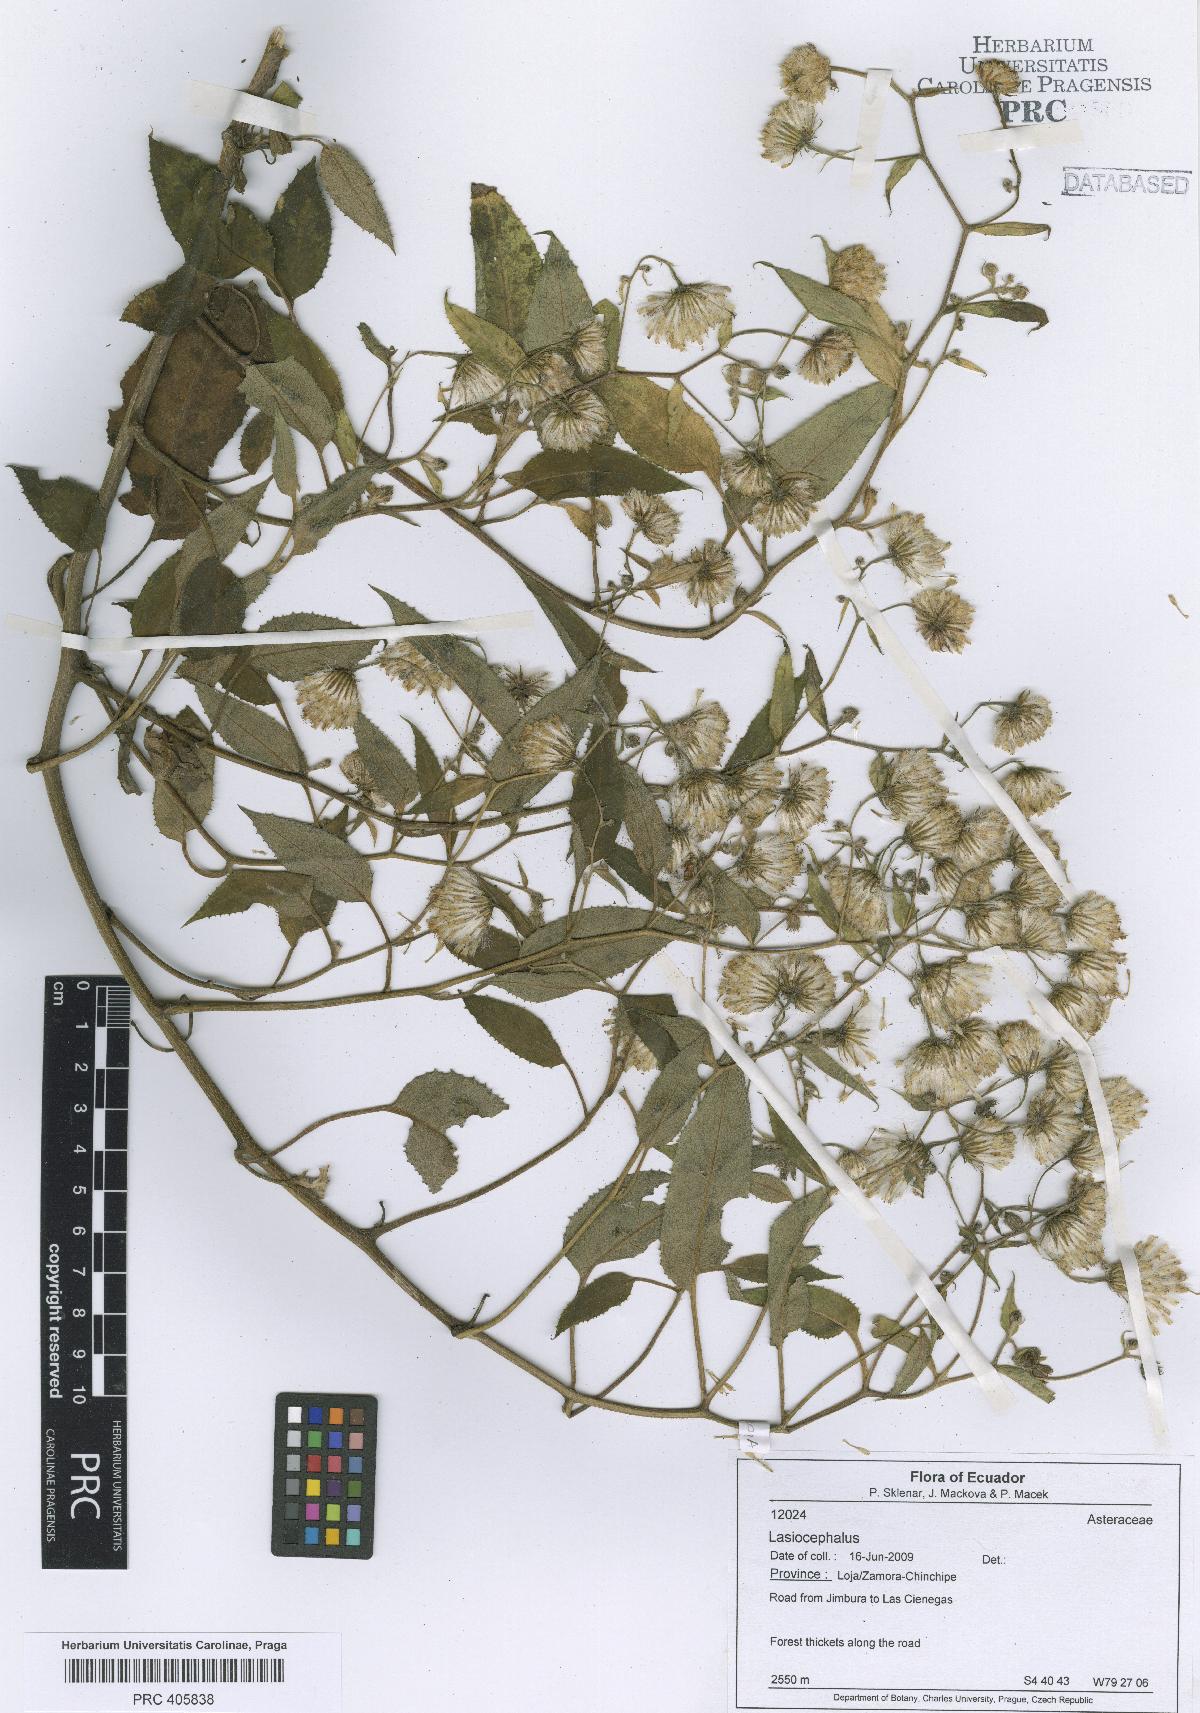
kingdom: Plantae
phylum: Tracheophyta
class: Magnoliopsida
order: Asterales
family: Asteraceae
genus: Lasiocephalus
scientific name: Lasiocephalus
